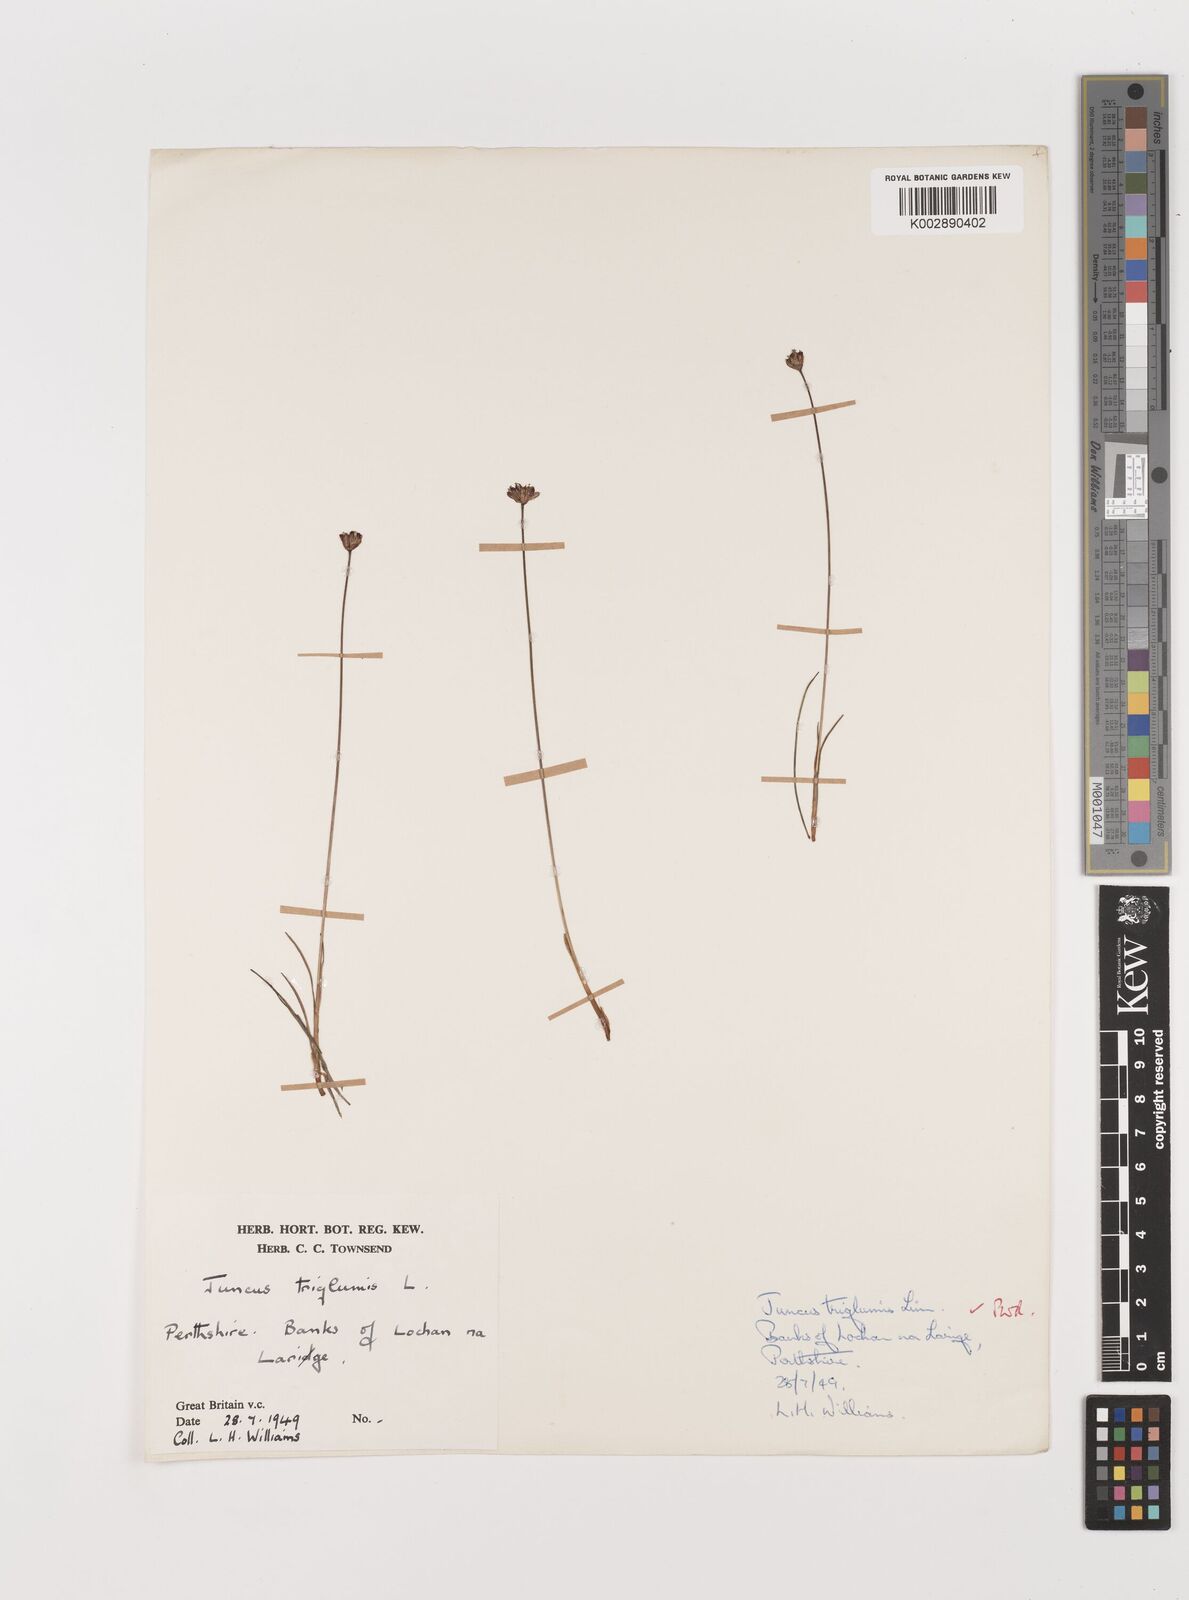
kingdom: Plantae
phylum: Tracheophyta
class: Liliopsida
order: Poales
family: Juncaceae
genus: Juncus
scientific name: Juncus triglumis
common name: Three-flowered rush
